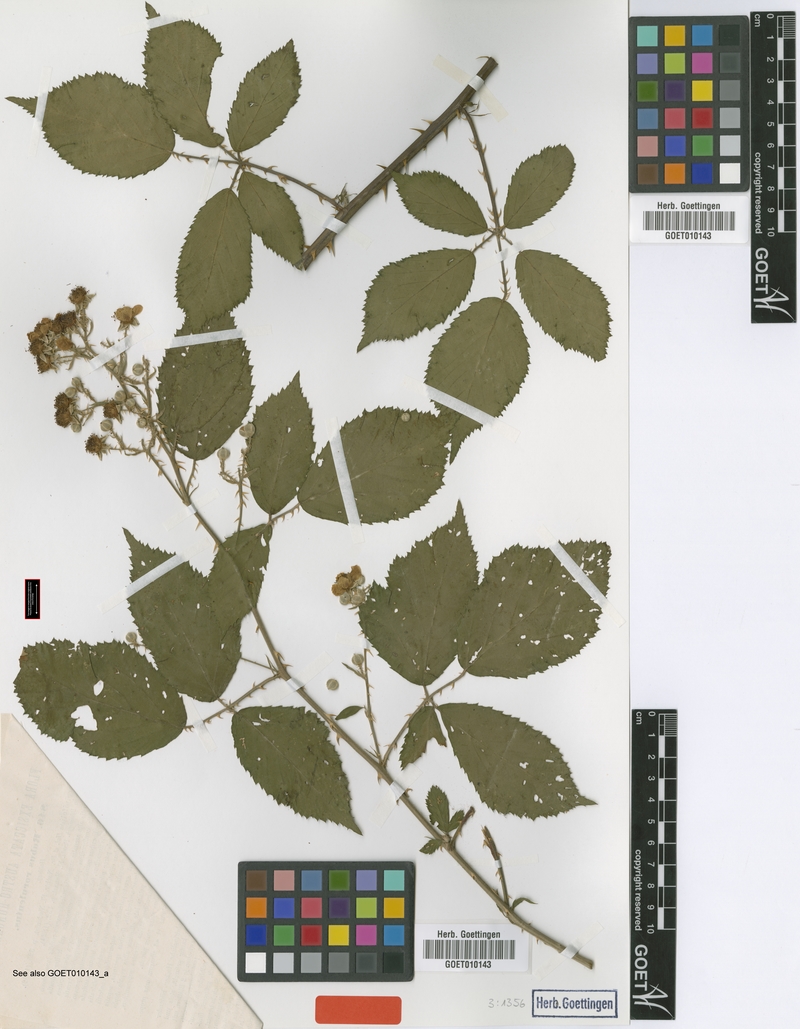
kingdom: Plantae
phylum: Tracheophyta
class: Magnoliopsida
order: Rosales
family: Rosaceae
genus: Rubus
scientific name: Rubus rorulentus
